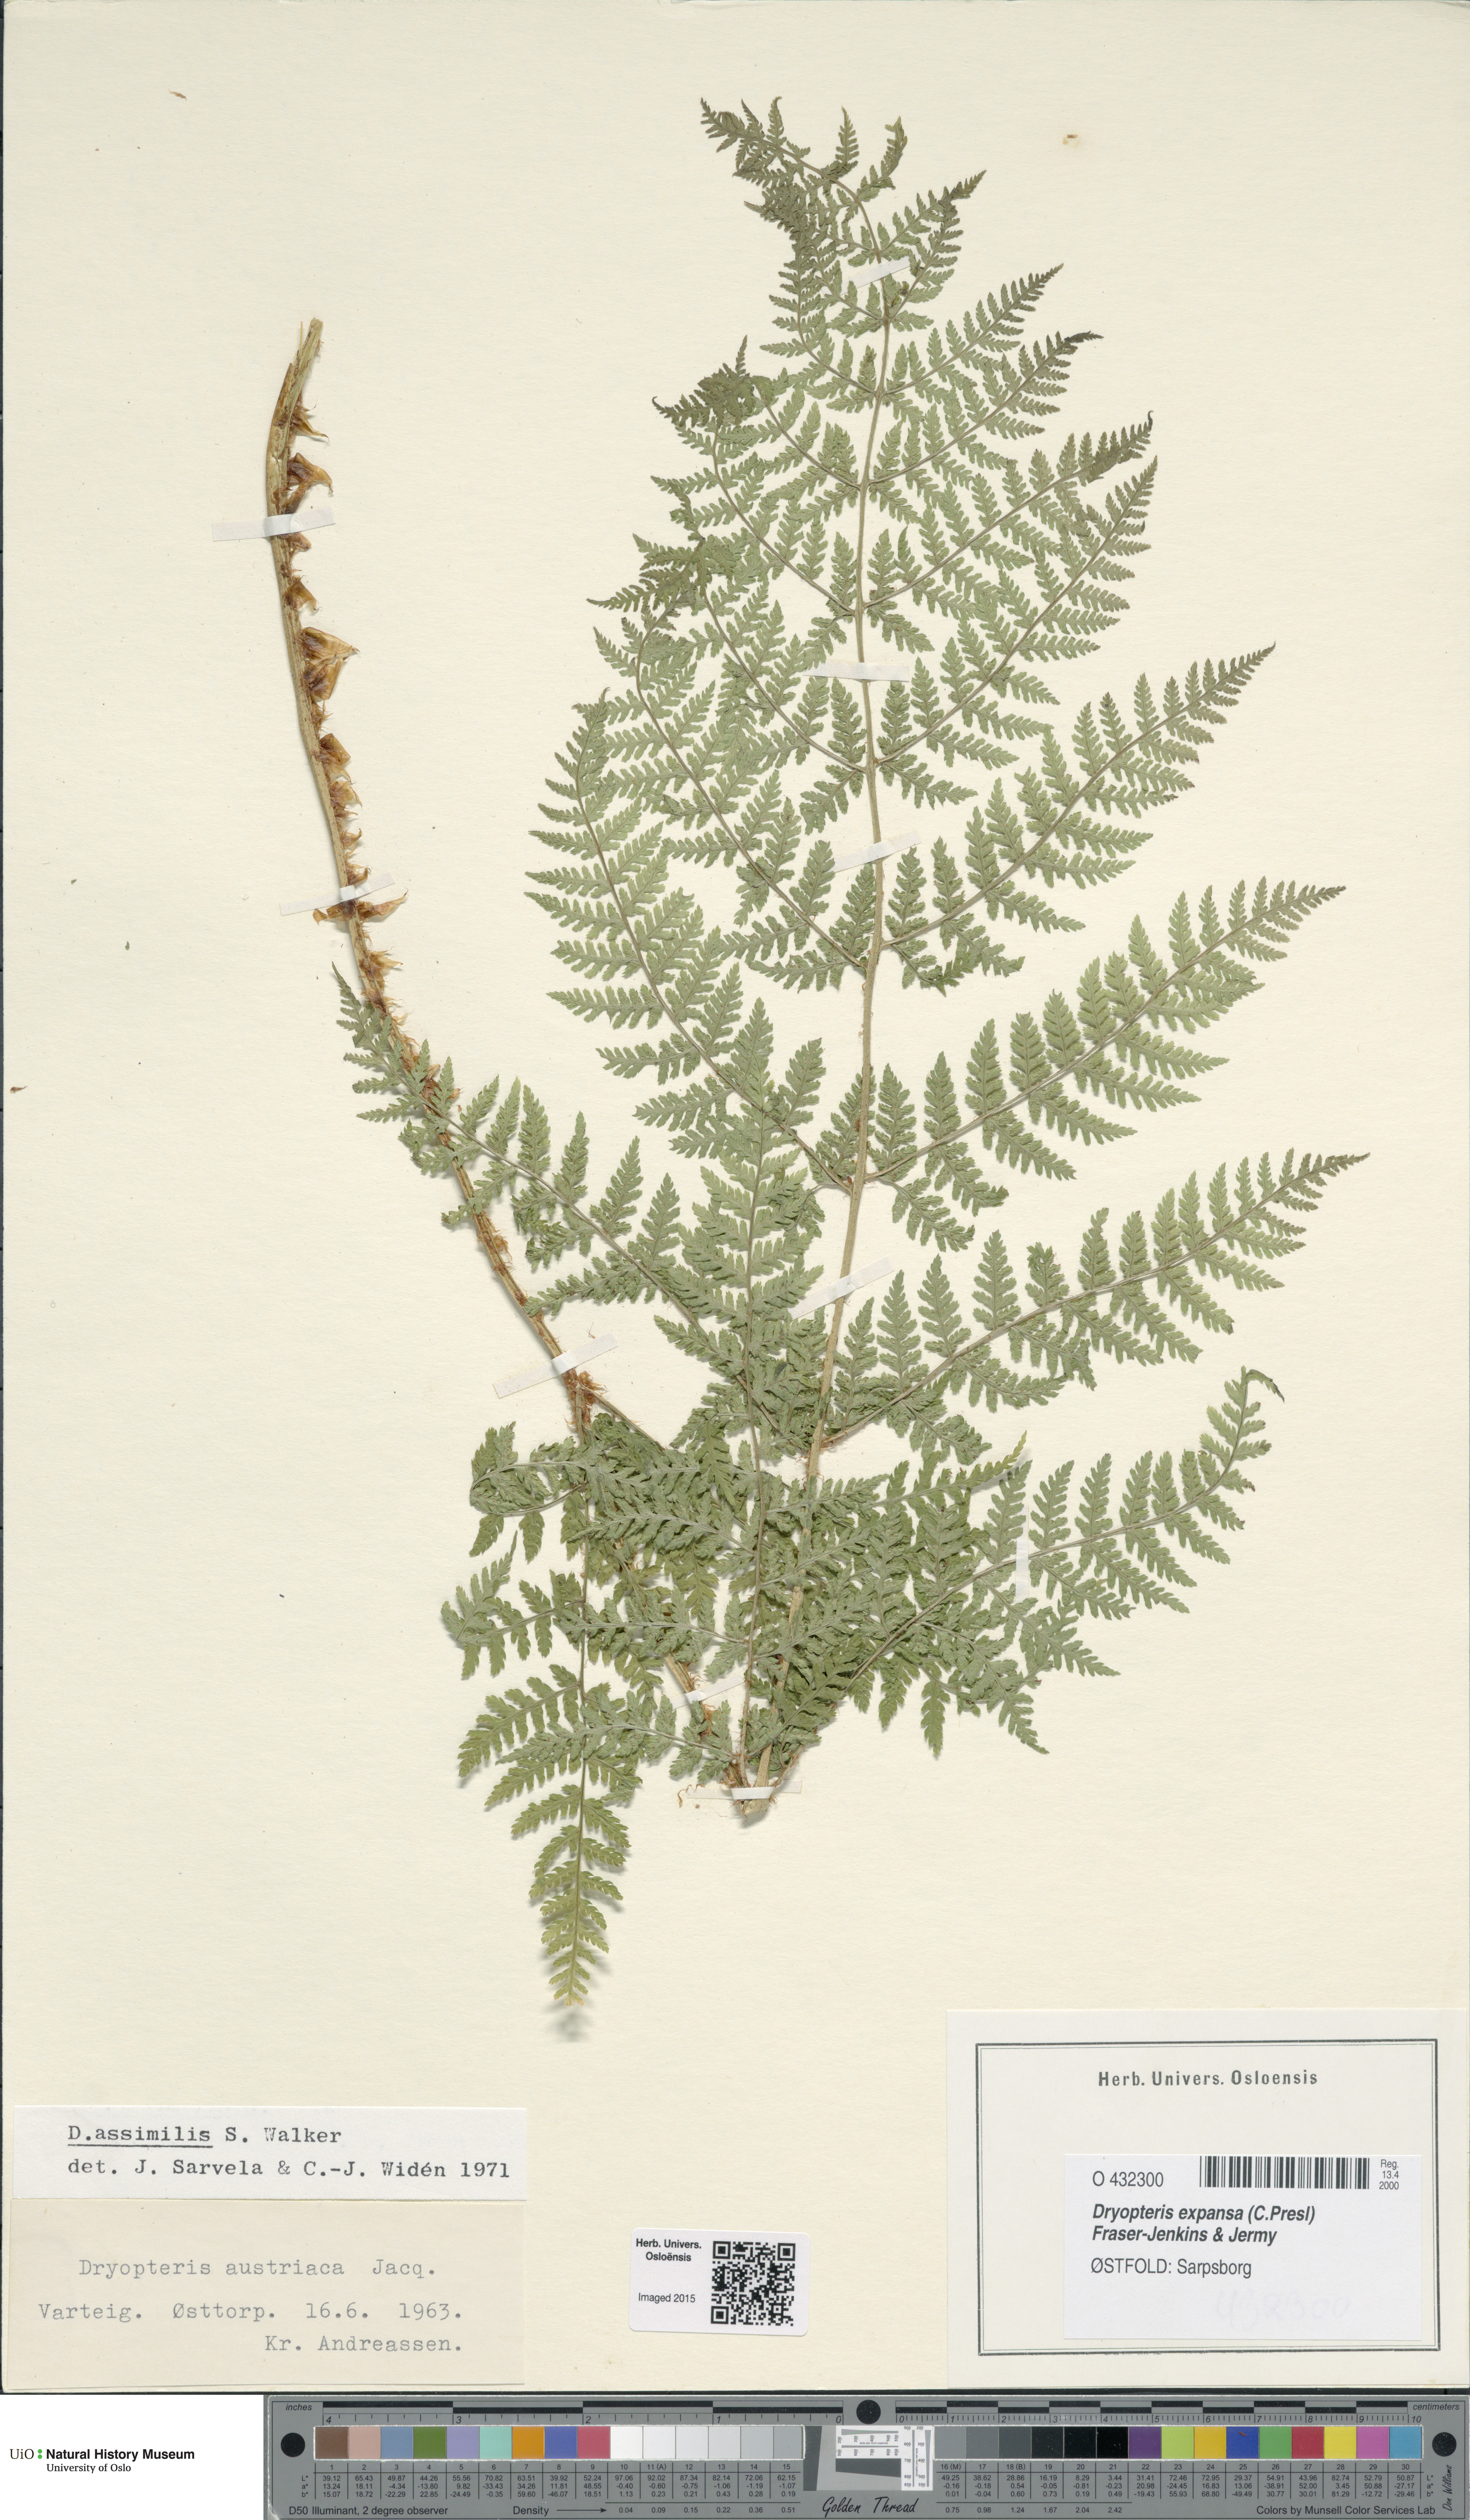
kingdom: Plantae
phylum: Tracheophyta
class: Polypodiopsida
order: Polypodiales
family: Dryopteridaceae
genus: Dryopteris
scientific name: Dryopteris expansa
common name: Northern buckler fern
